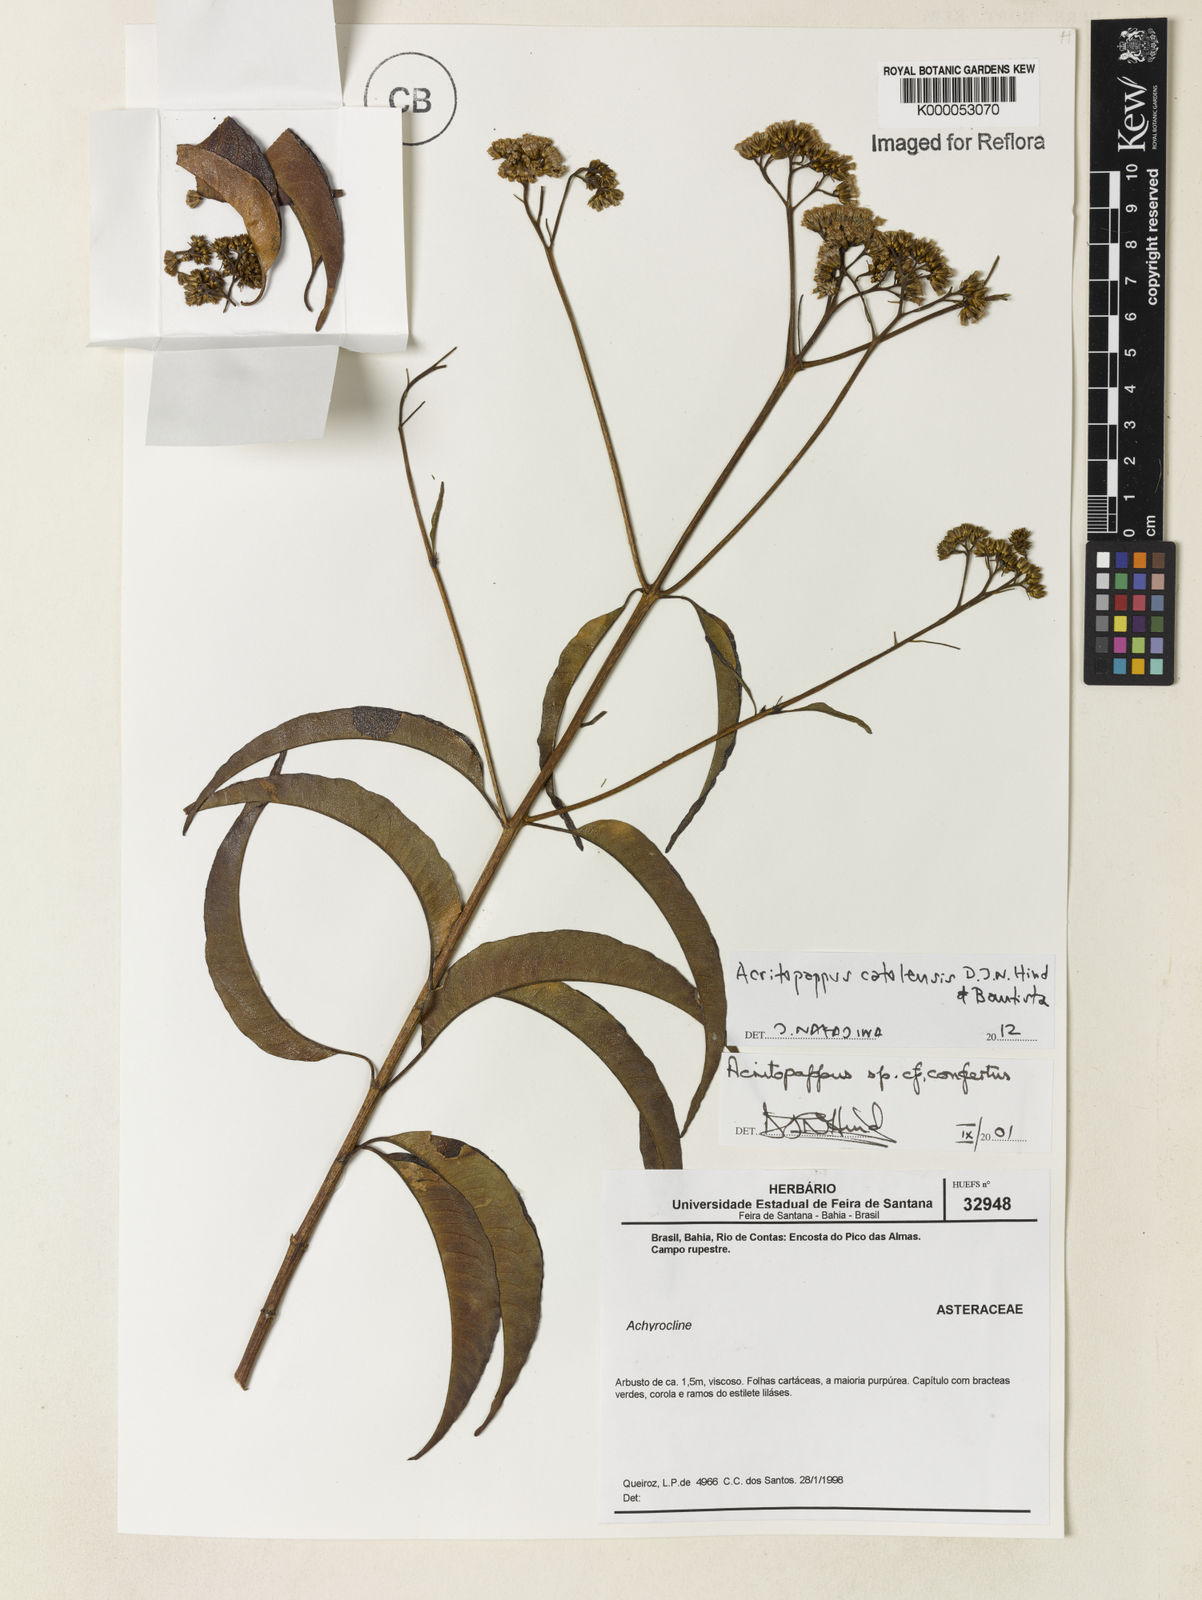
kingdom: Plantae
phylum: Tracheophyta
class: Magnoliopsida
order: Asterales
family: Asteraceae
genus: Acritopappus
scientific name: Acritopappus confertus
